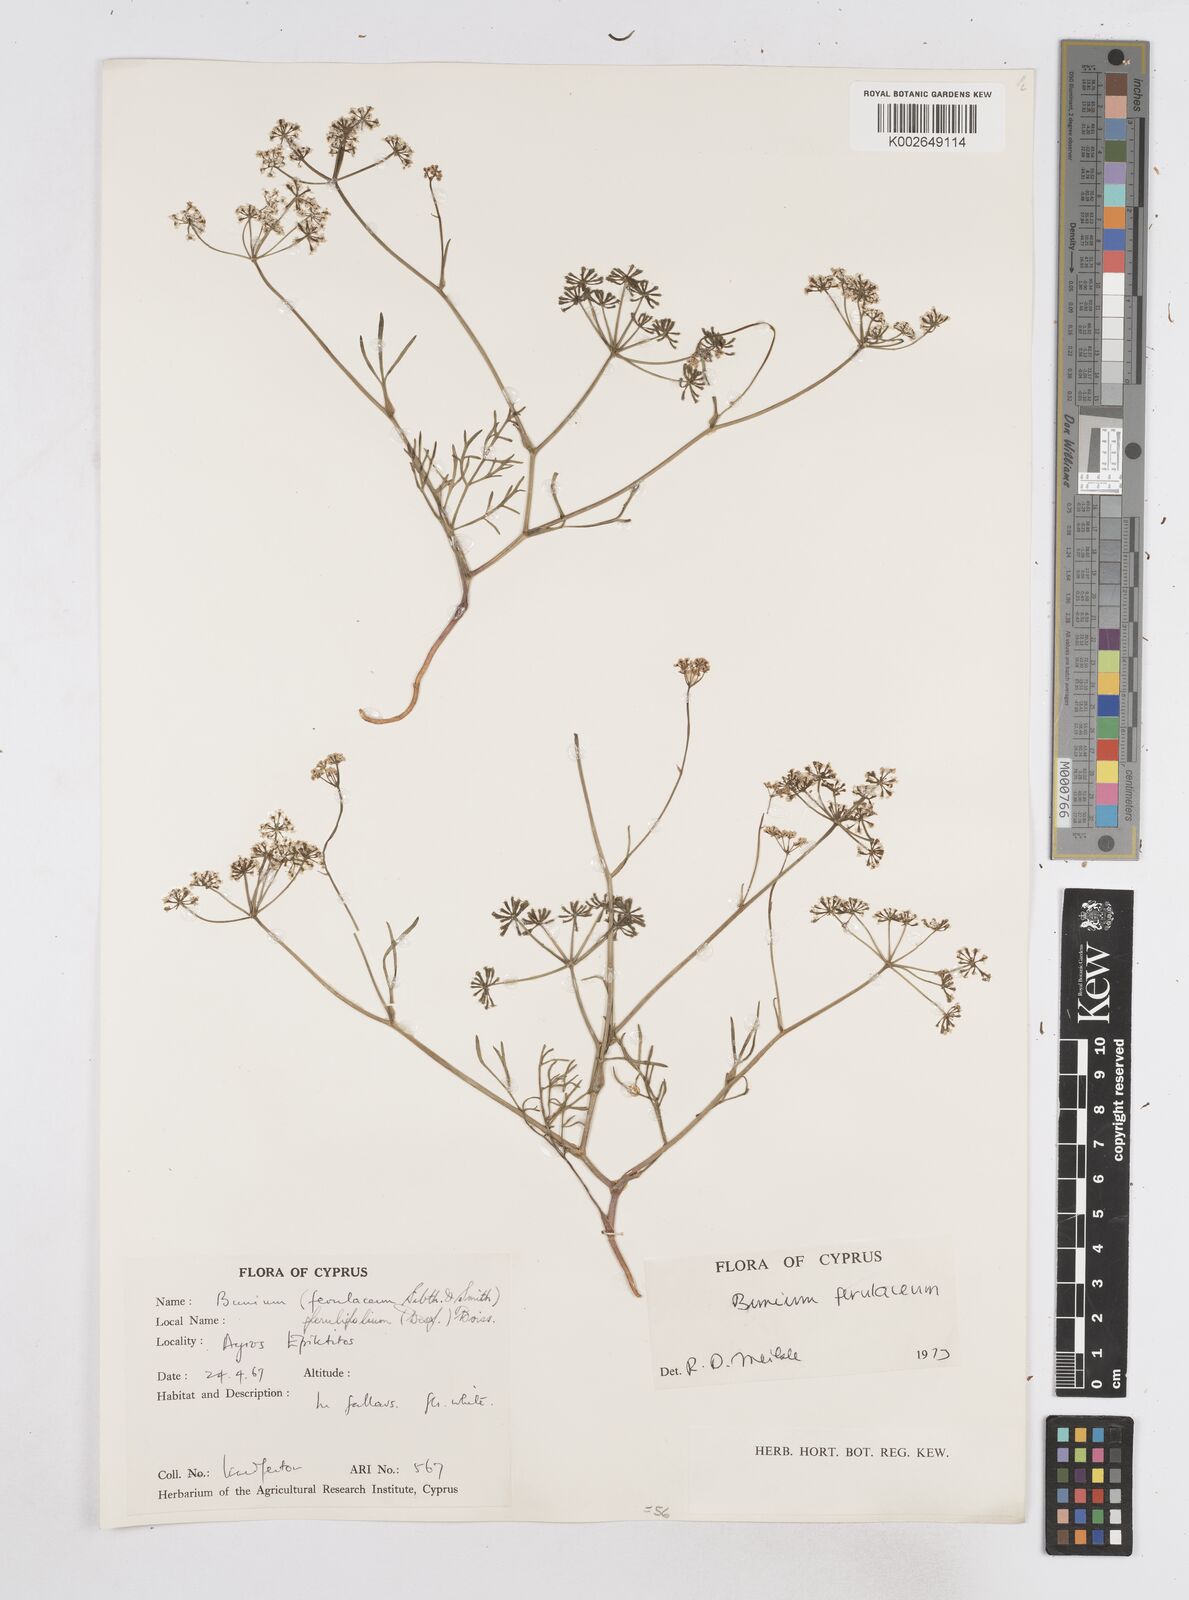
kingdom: Plantae
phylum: Tracheophyta
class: Magnoliopsida
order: Apiales
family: Apiaceae
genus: Bunium
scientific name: Bunium ferulaceum
